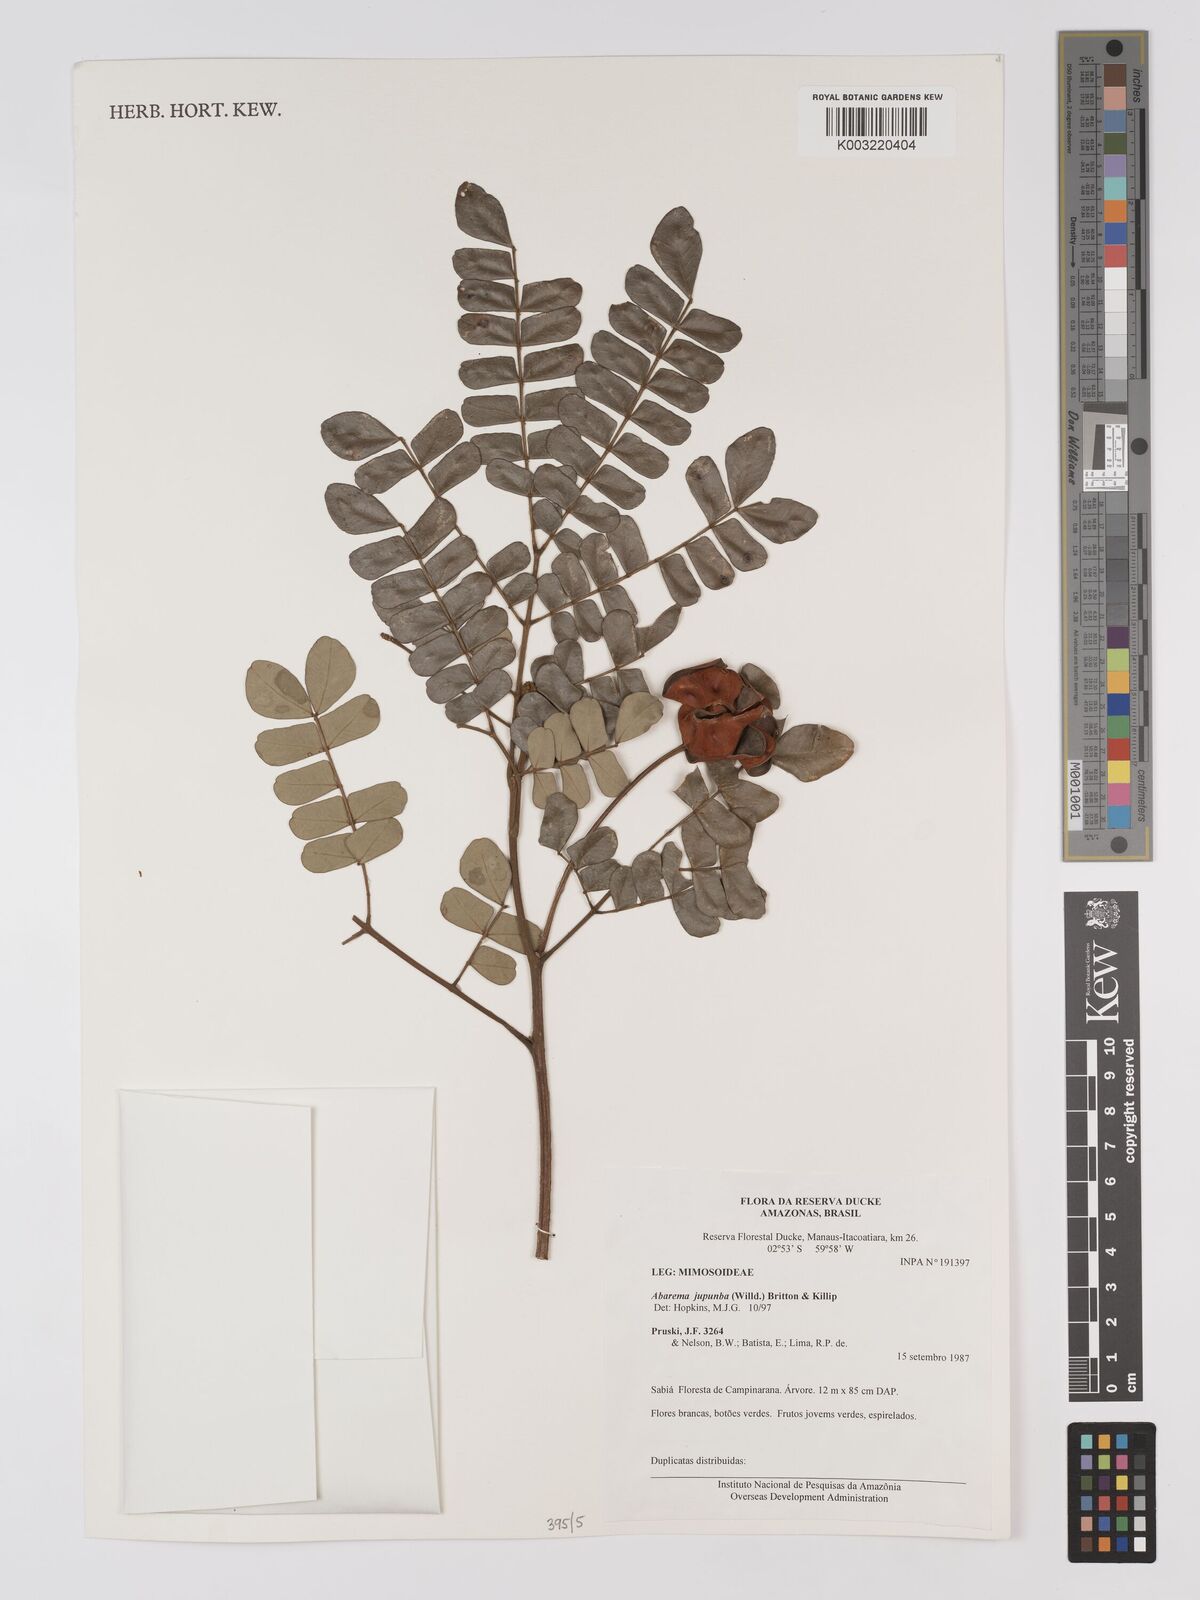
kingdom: Plantae
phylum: Tracheophyta
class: Magnoliopsida
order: Fabales
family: Fabaceae
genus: Jupunba
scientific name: Jupunba trapezifolia
